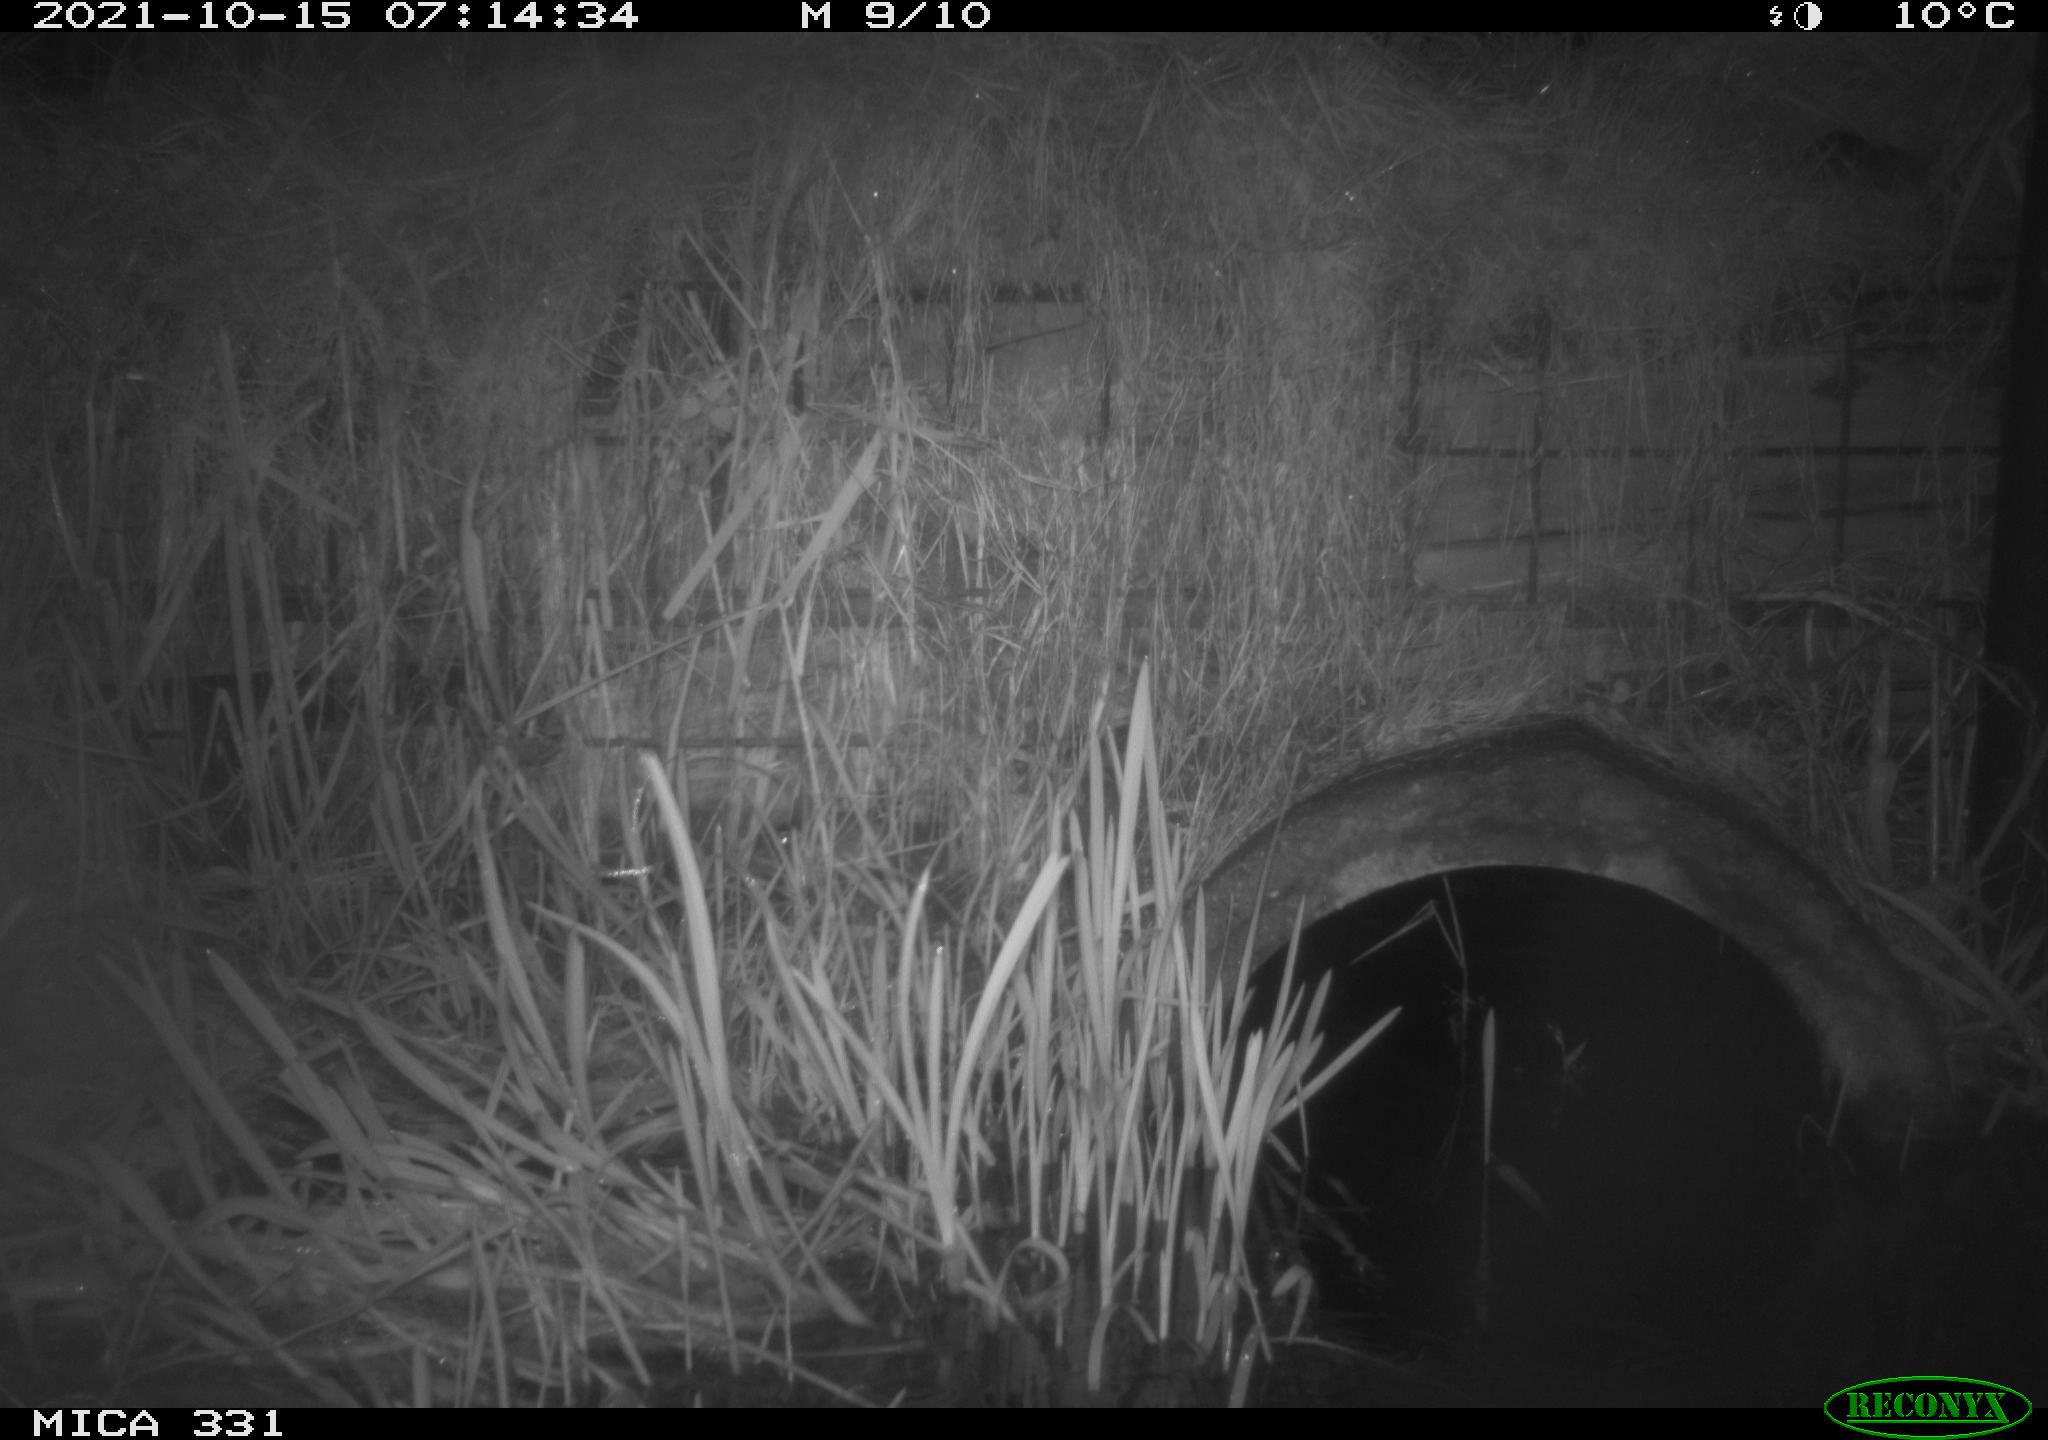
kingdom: Animalia
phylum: Chordata
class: Mammalia
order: Rodentia
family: Muridae
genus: Rattus
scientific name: Rattus norvegicus
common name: Brown rat
